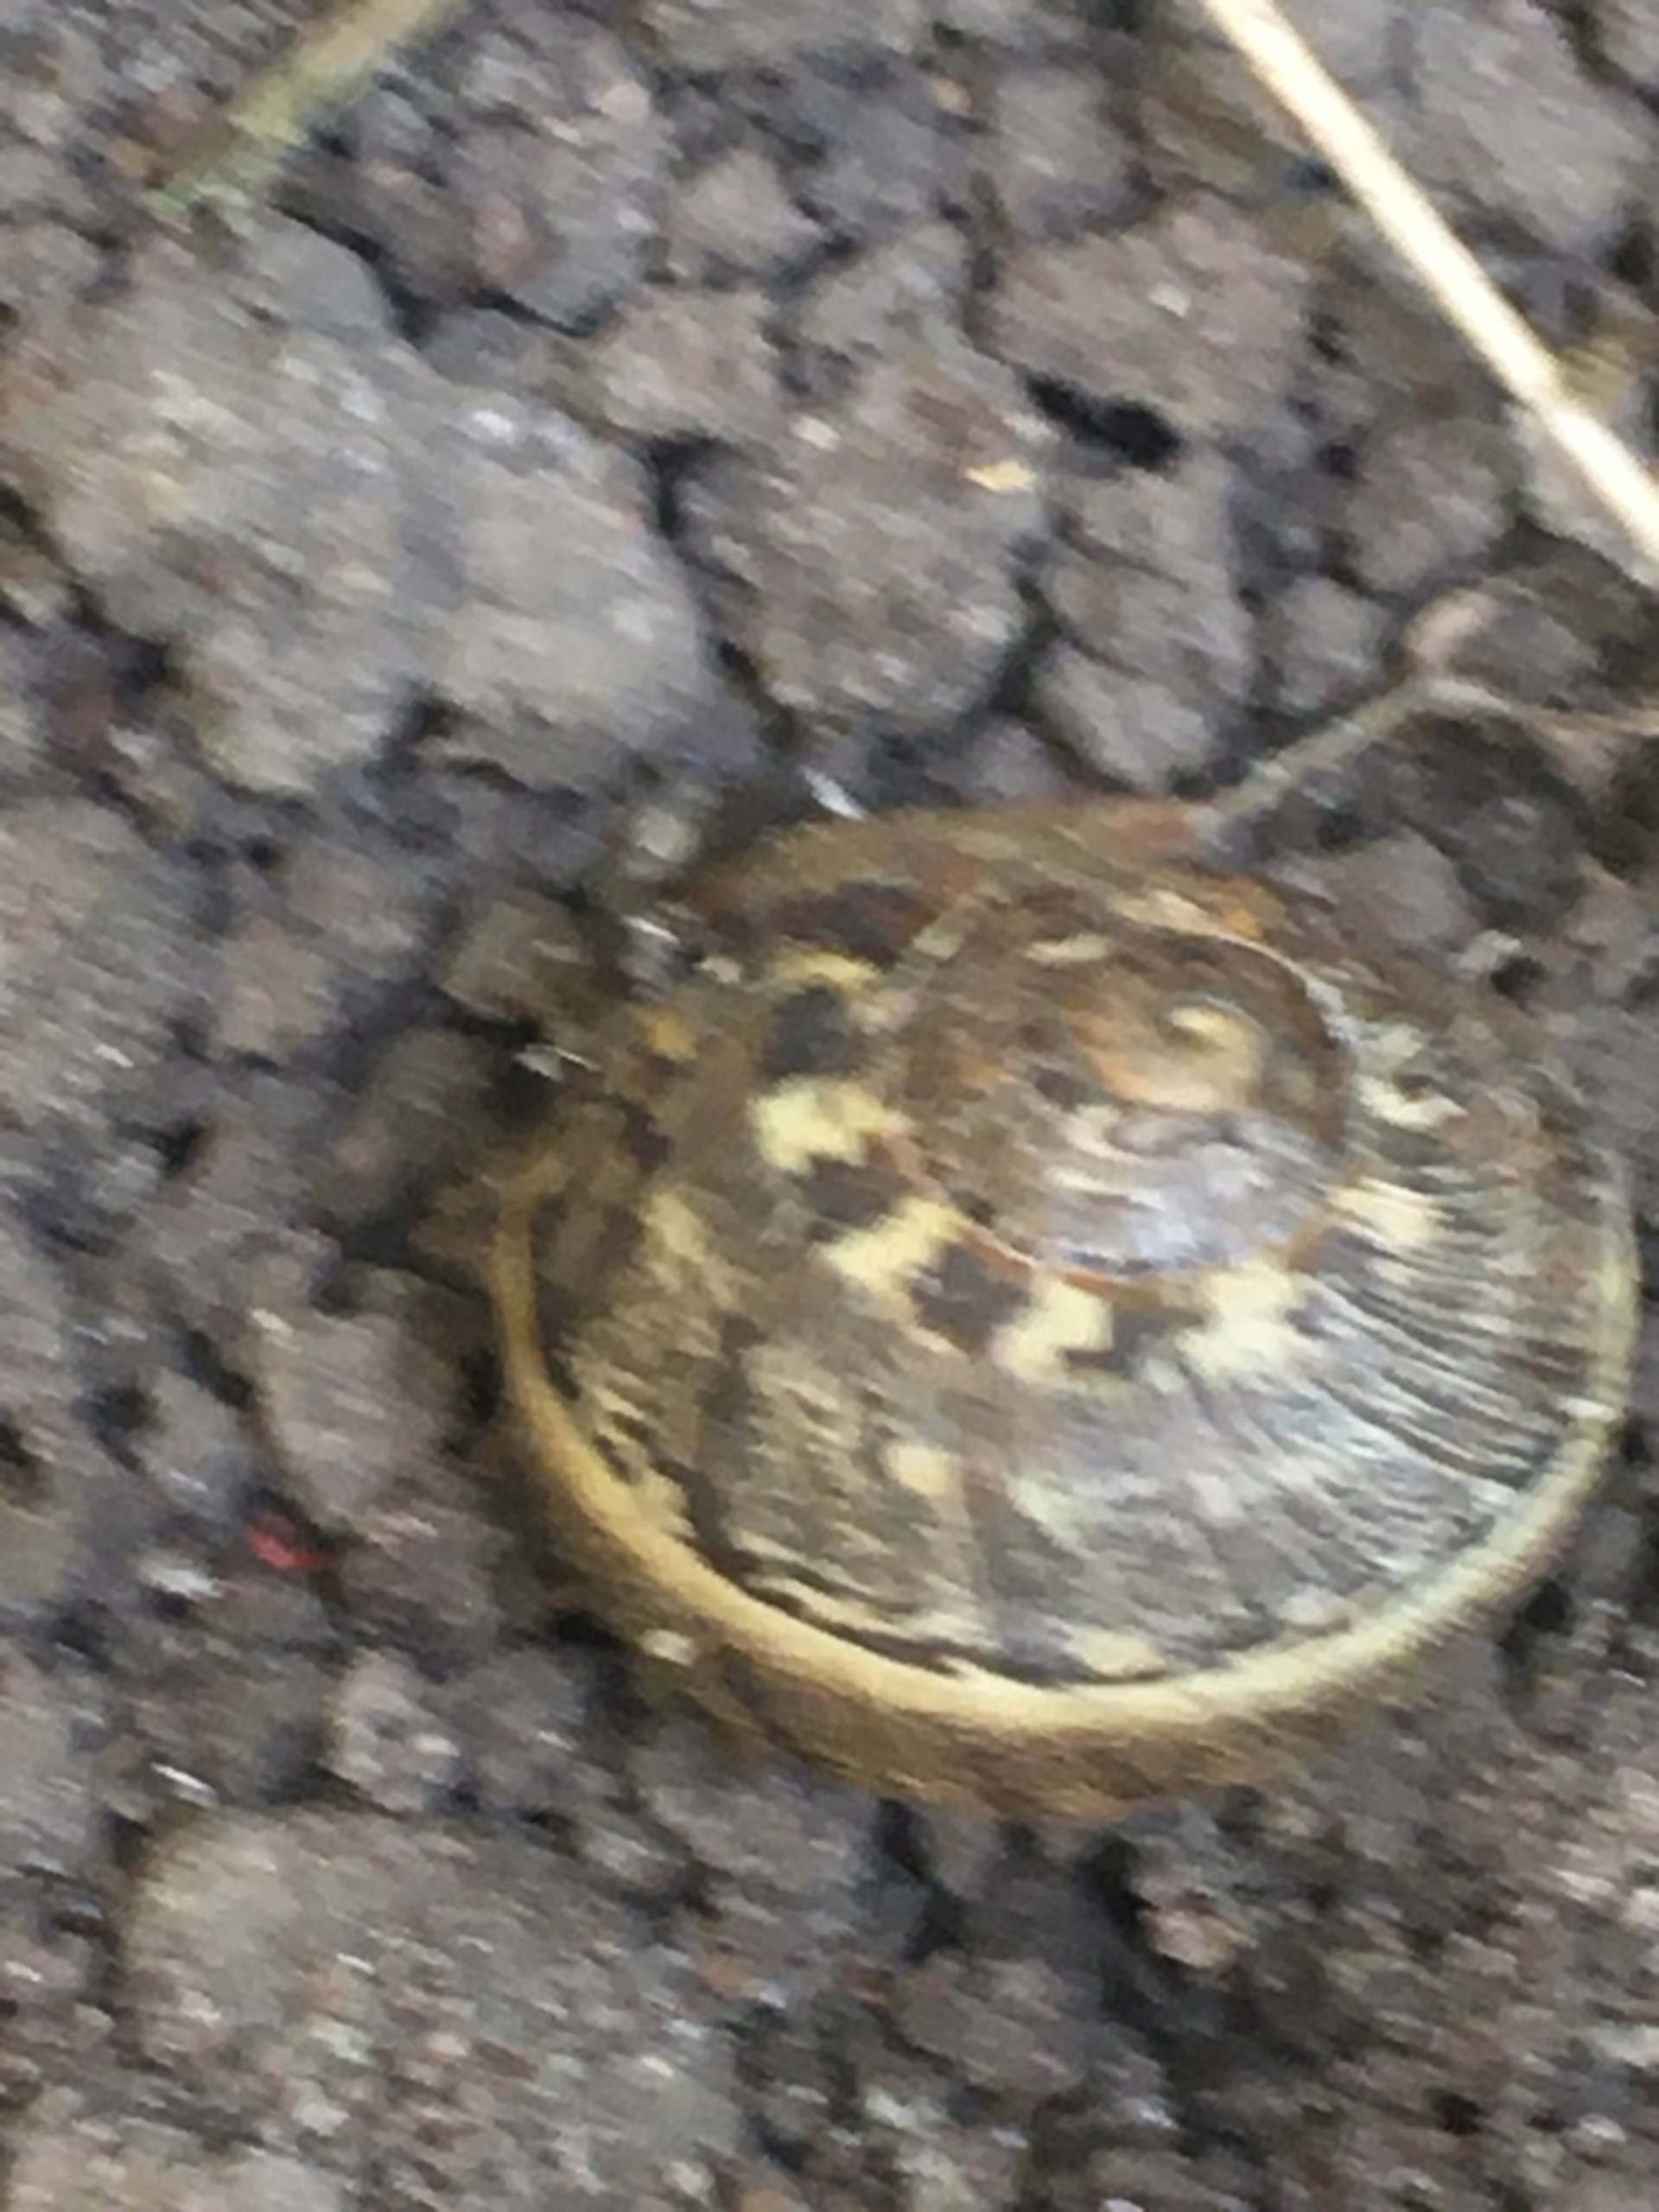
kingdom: Animalia
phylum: Mollusca
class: Gastropoda
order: Stylommatophora
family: Helicidae
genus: Cornu
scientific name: Cornu aspersum
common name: Plettet voldsnegl
